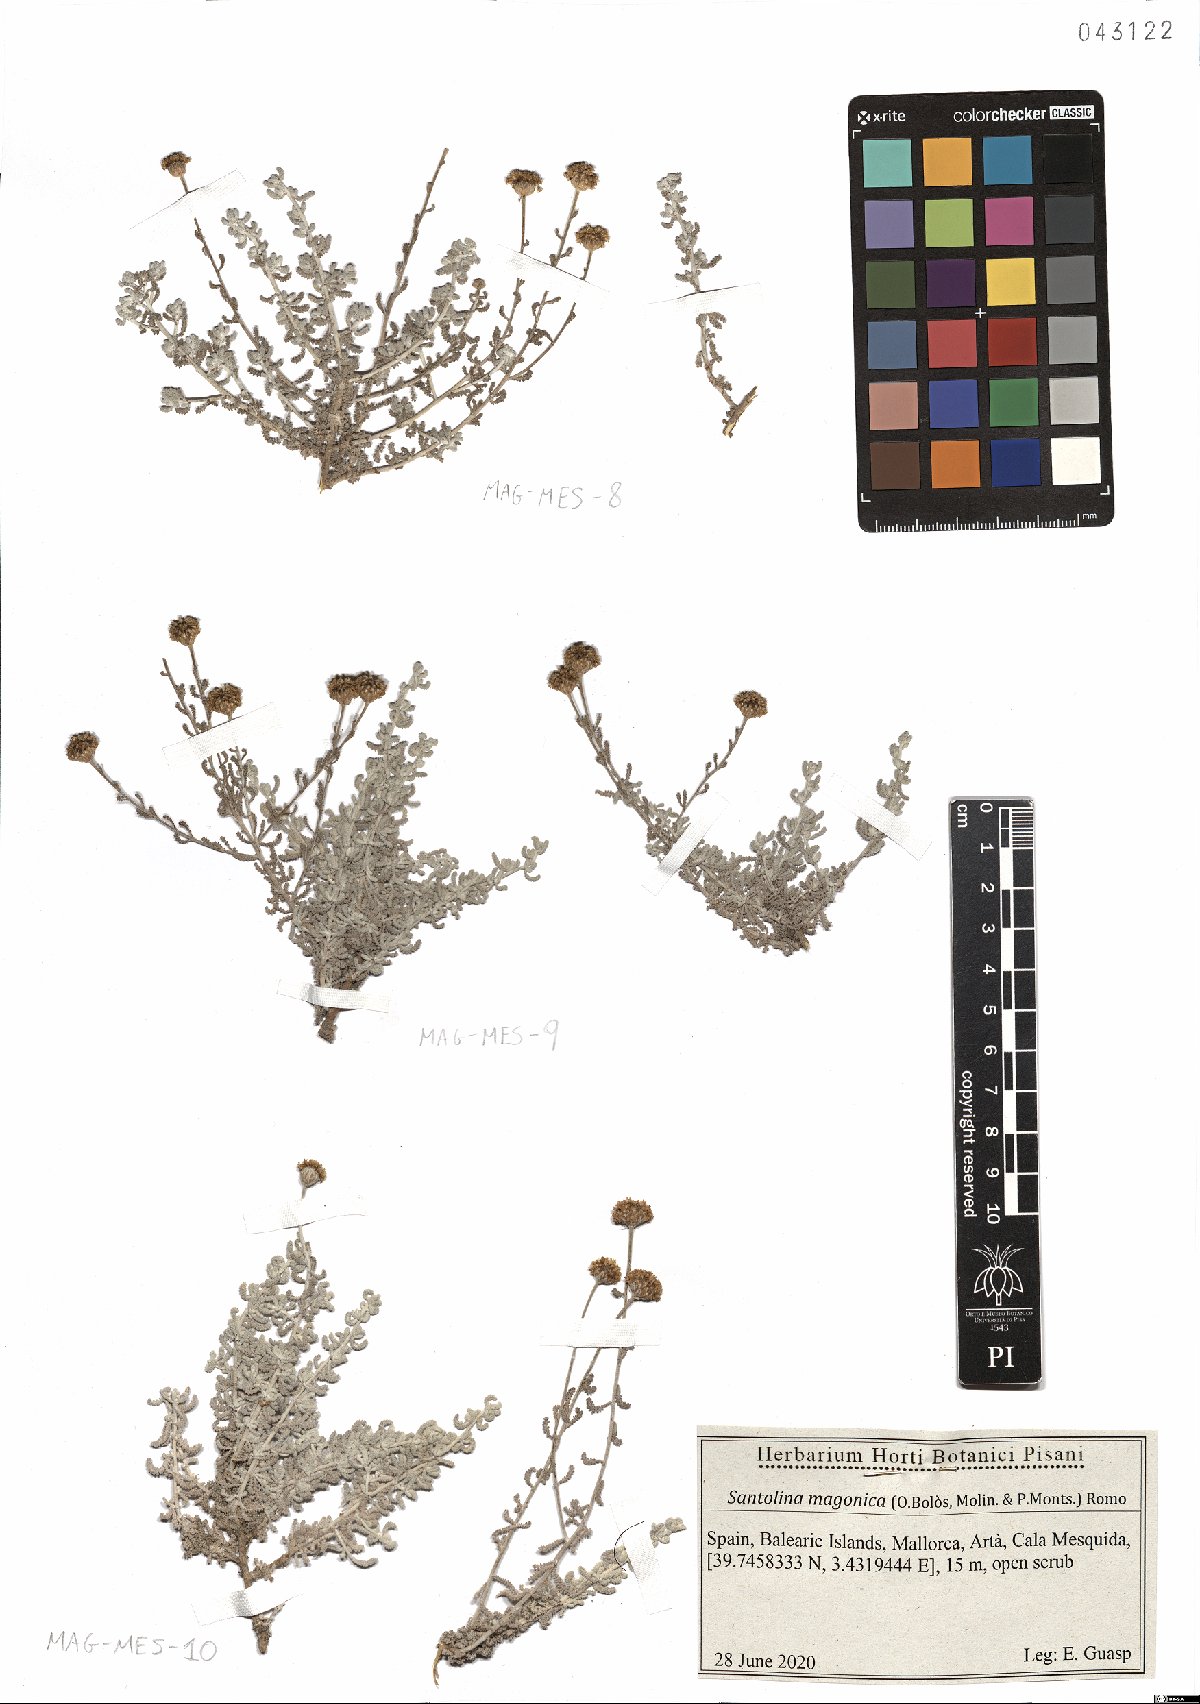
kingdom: Plantae
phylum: Tracheophyta
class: Magnoliopsida
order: Asterales
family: Asteraceae
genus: Santolina
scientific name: Santolina magonica
